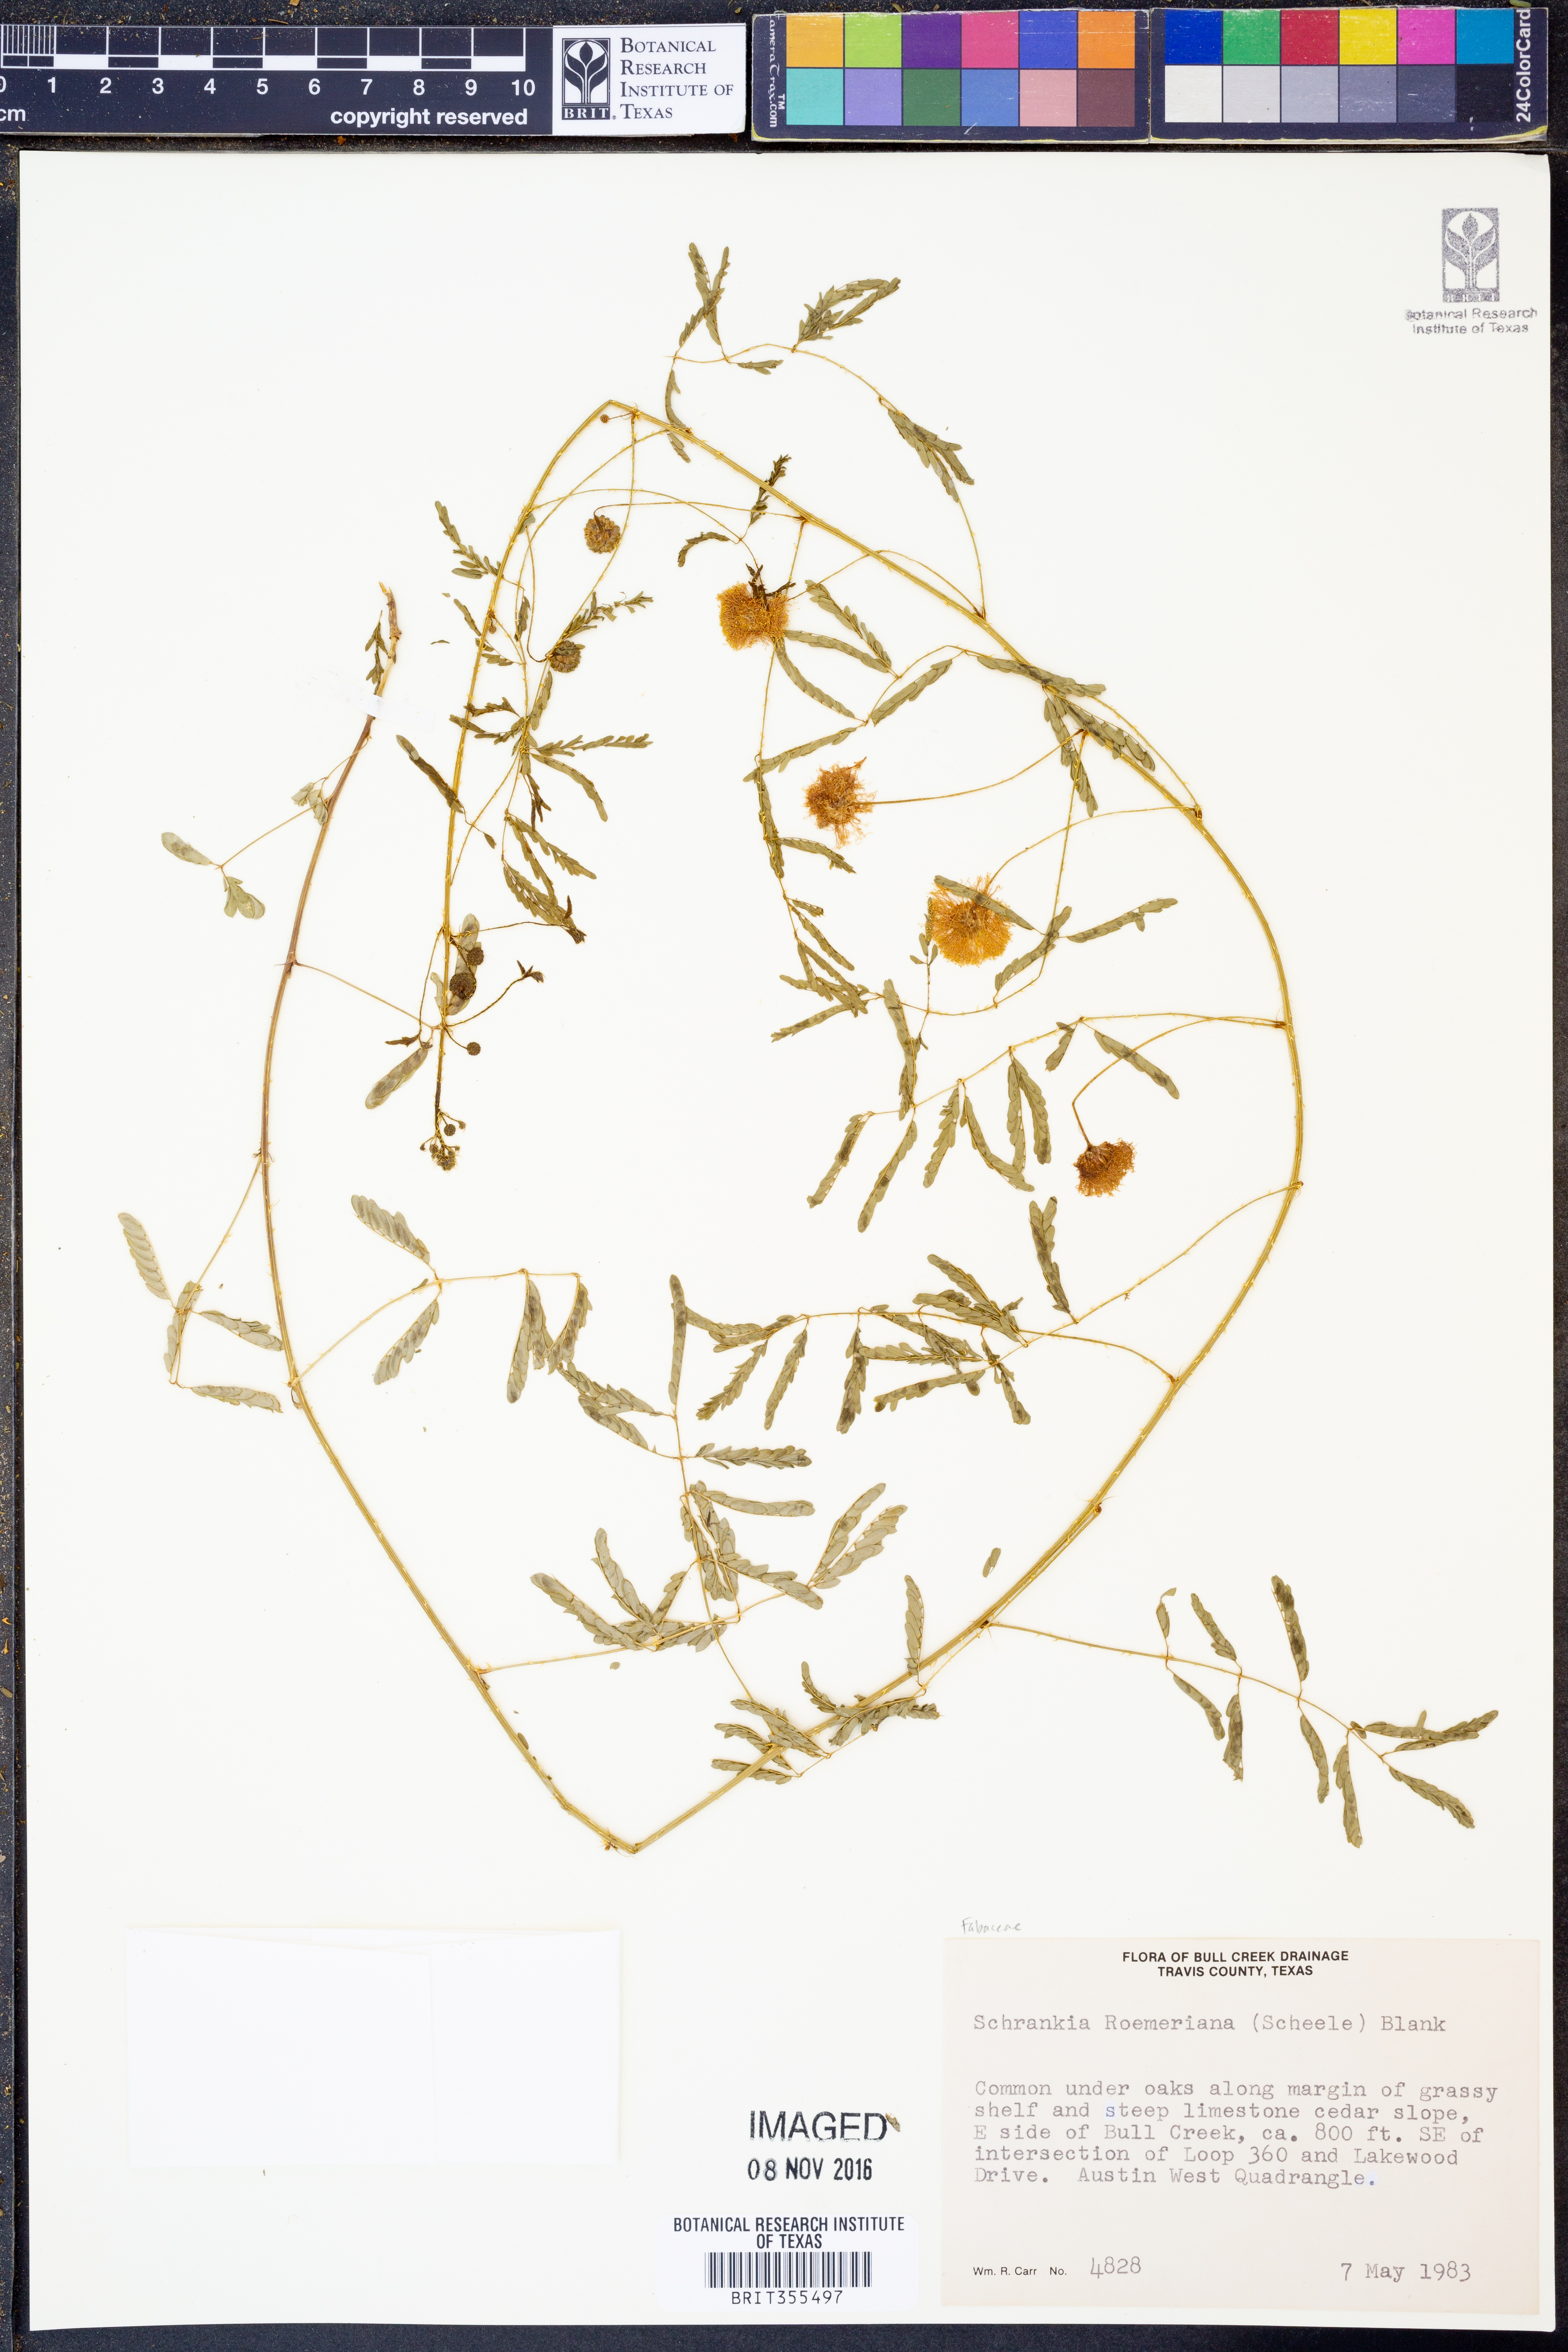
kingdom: Plantae
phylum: Tracheophyta
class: Magnoliopsida
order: Fabales
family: Fabaceae
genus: Mimosa
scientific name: Mimosa quadrivalvis
